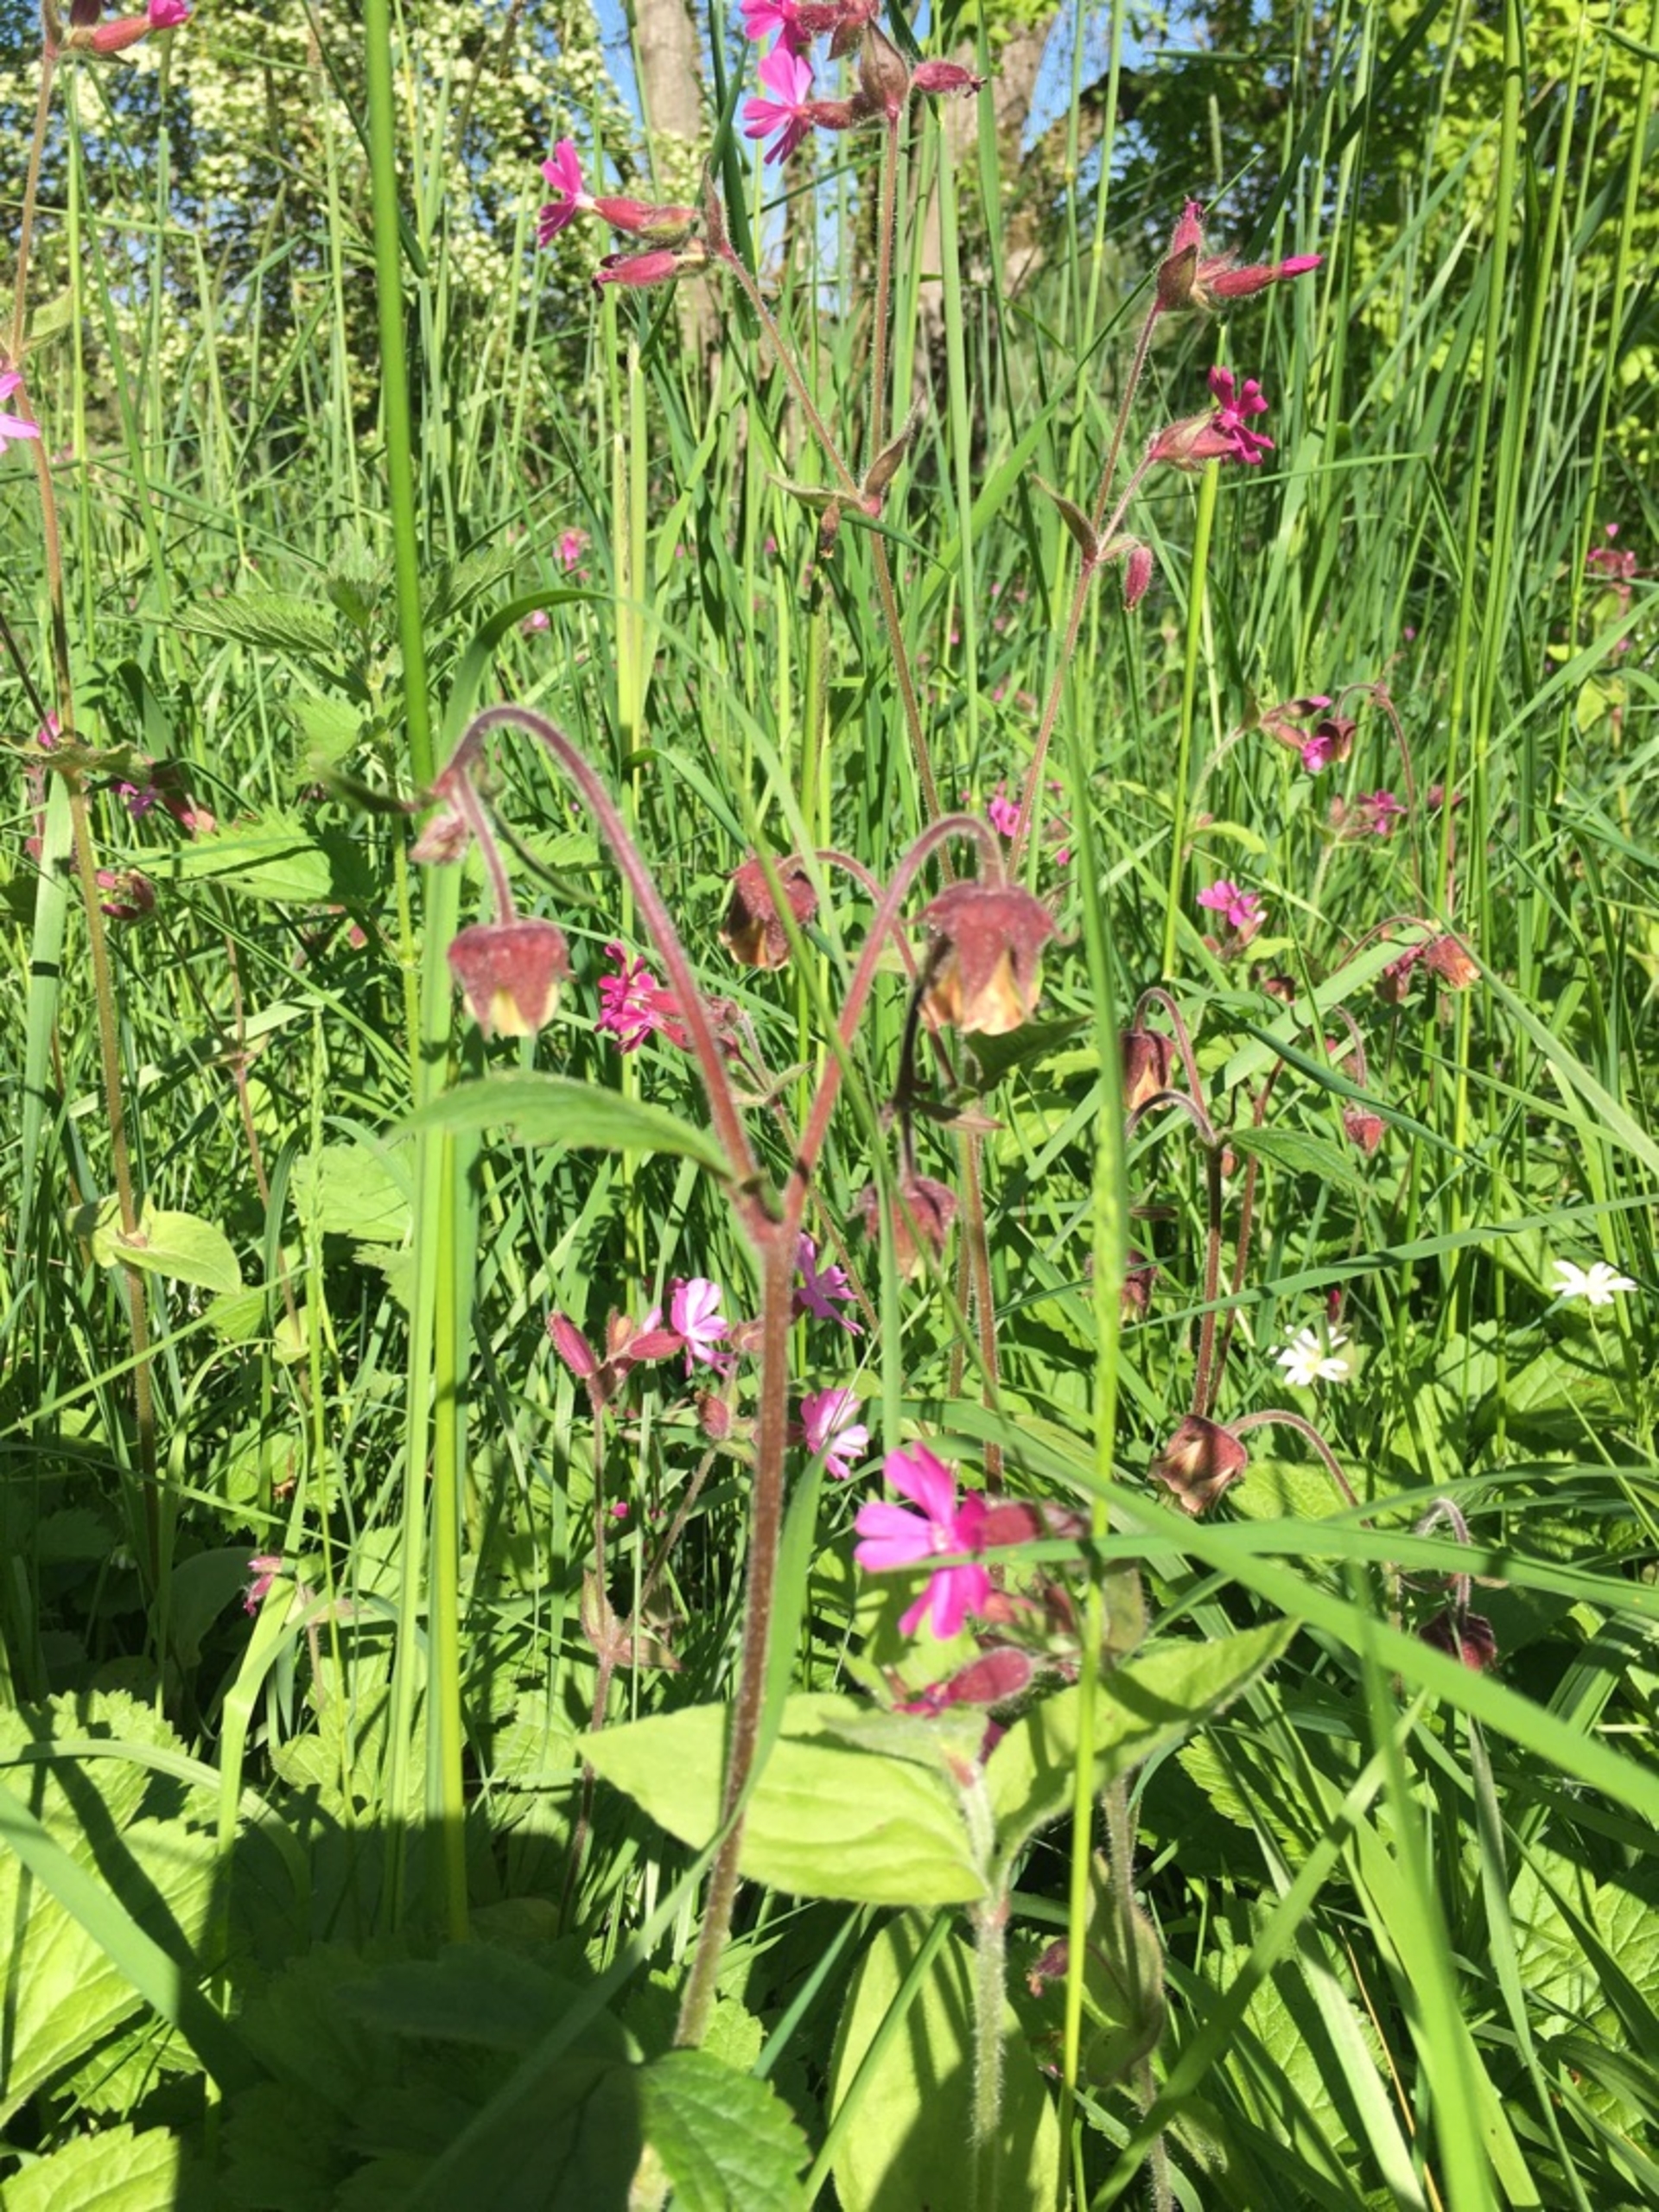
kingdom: Plantae
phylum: Tracheophyta
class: Magnoliopsida
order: Rosales
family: Rosaceae
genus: Geum
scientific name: Geum rivale
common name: Eng-nellikerod
